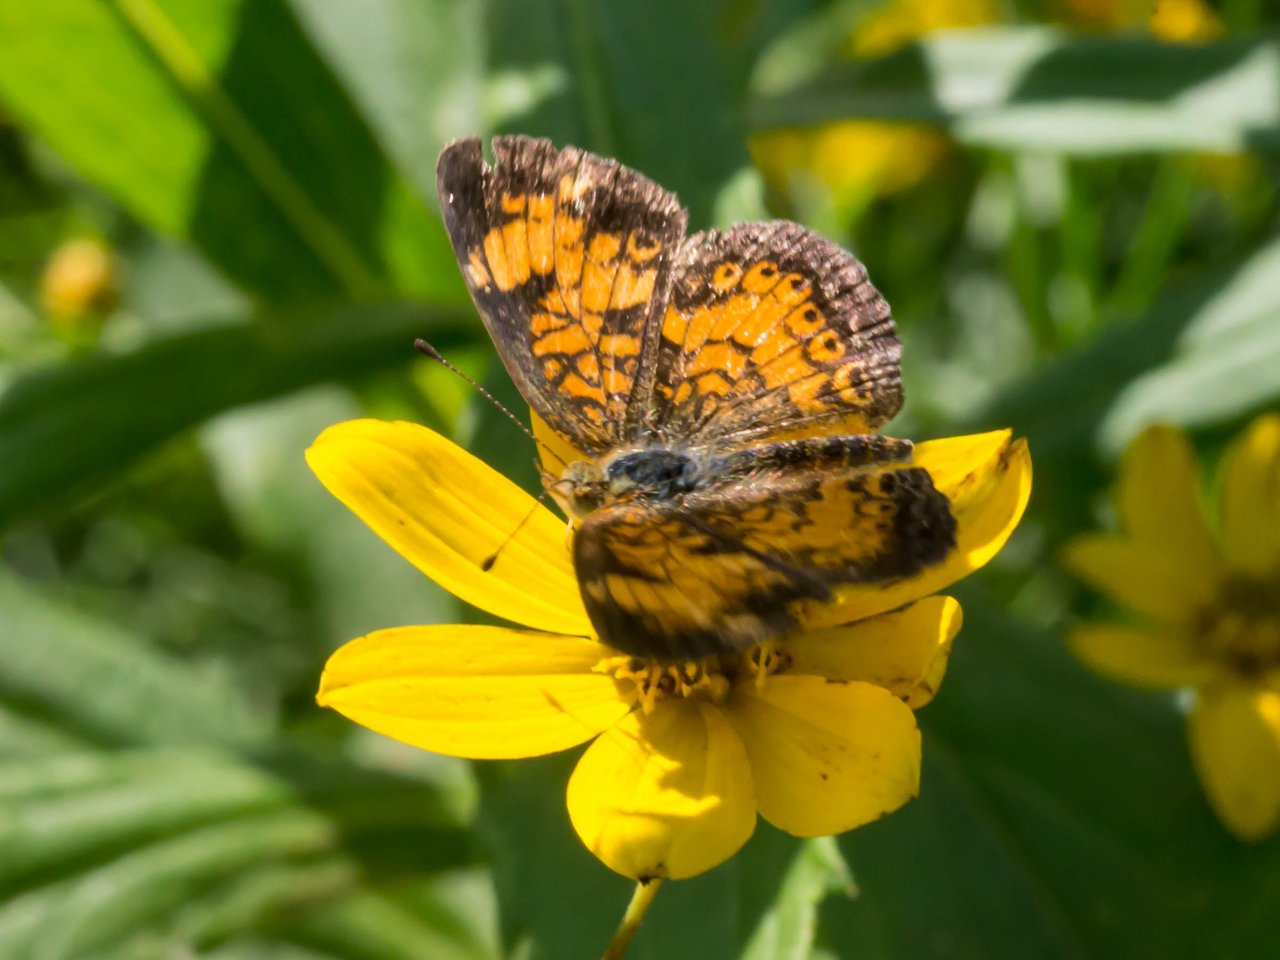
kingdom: Animalia
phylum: Arthropoda
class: Insecta
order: Lepidoptera
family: Nymphalidae
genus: Phyciodes
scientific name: Phyciodes tharos
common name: Pearl Crescent
